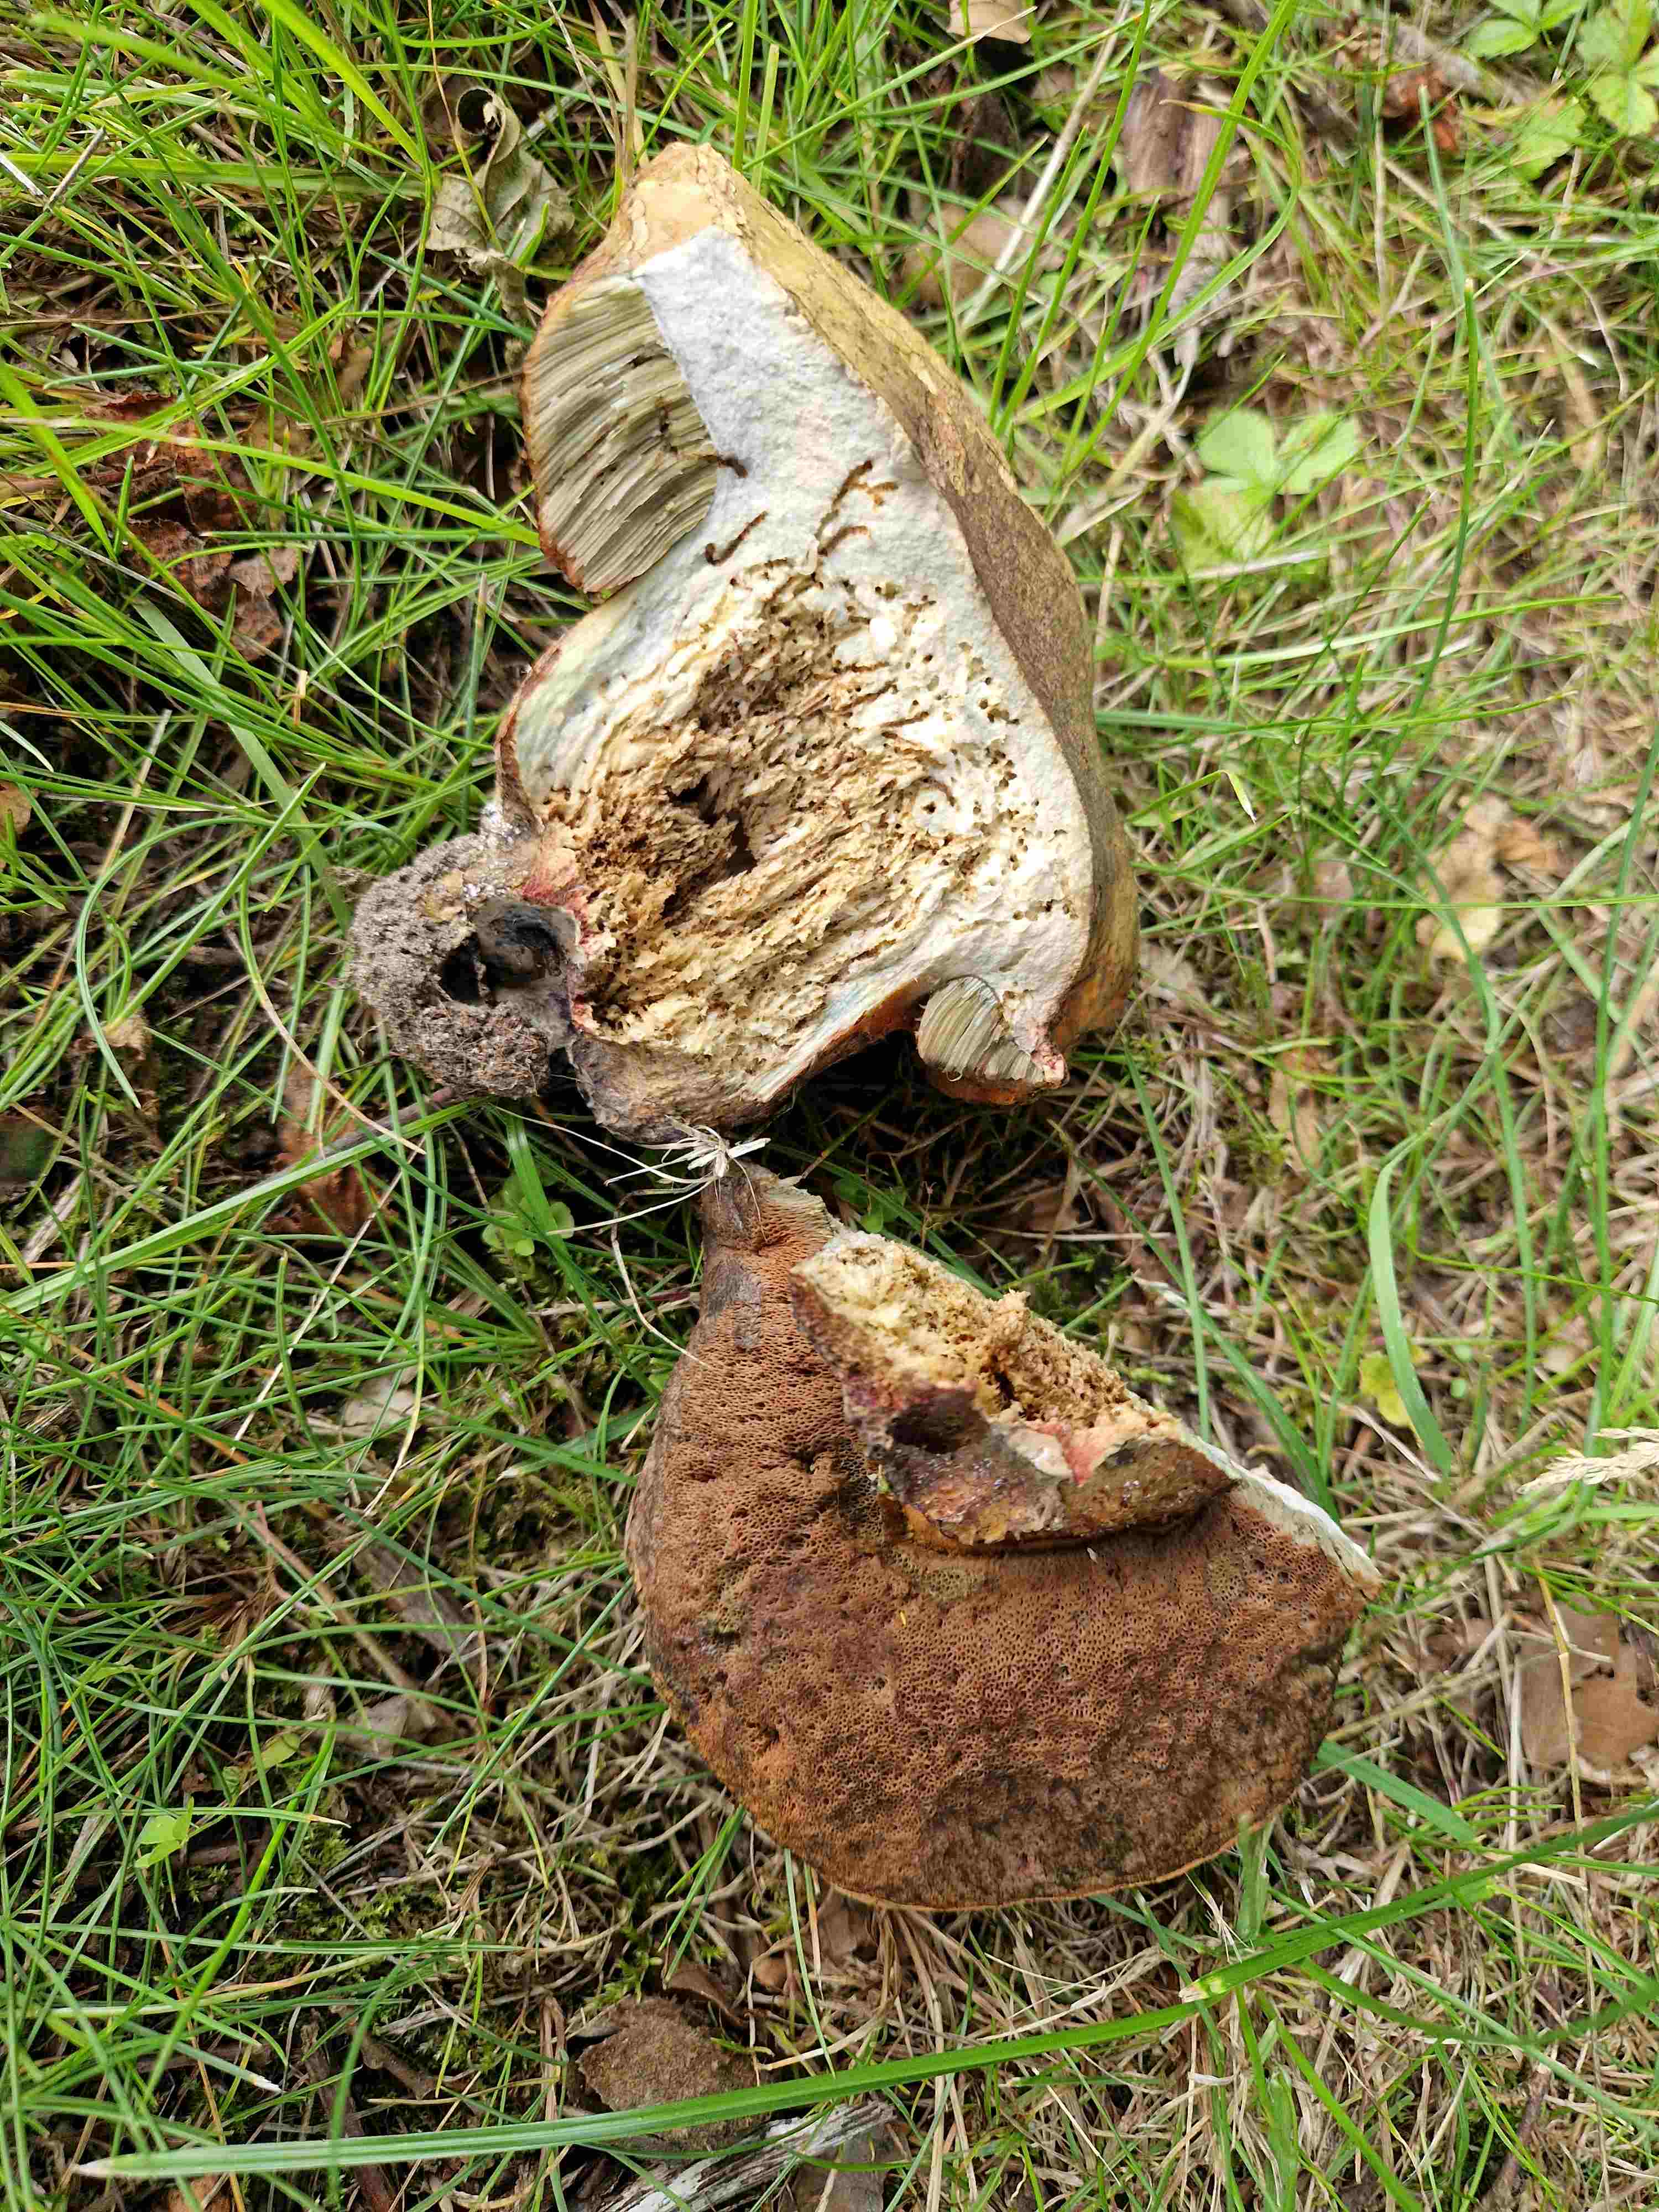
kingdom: Fungi
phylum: Basidiomycota
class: Agaricomycetes
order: Boletales
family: Boletaceae
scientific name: Boletaceae
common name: rørhatfamilien
